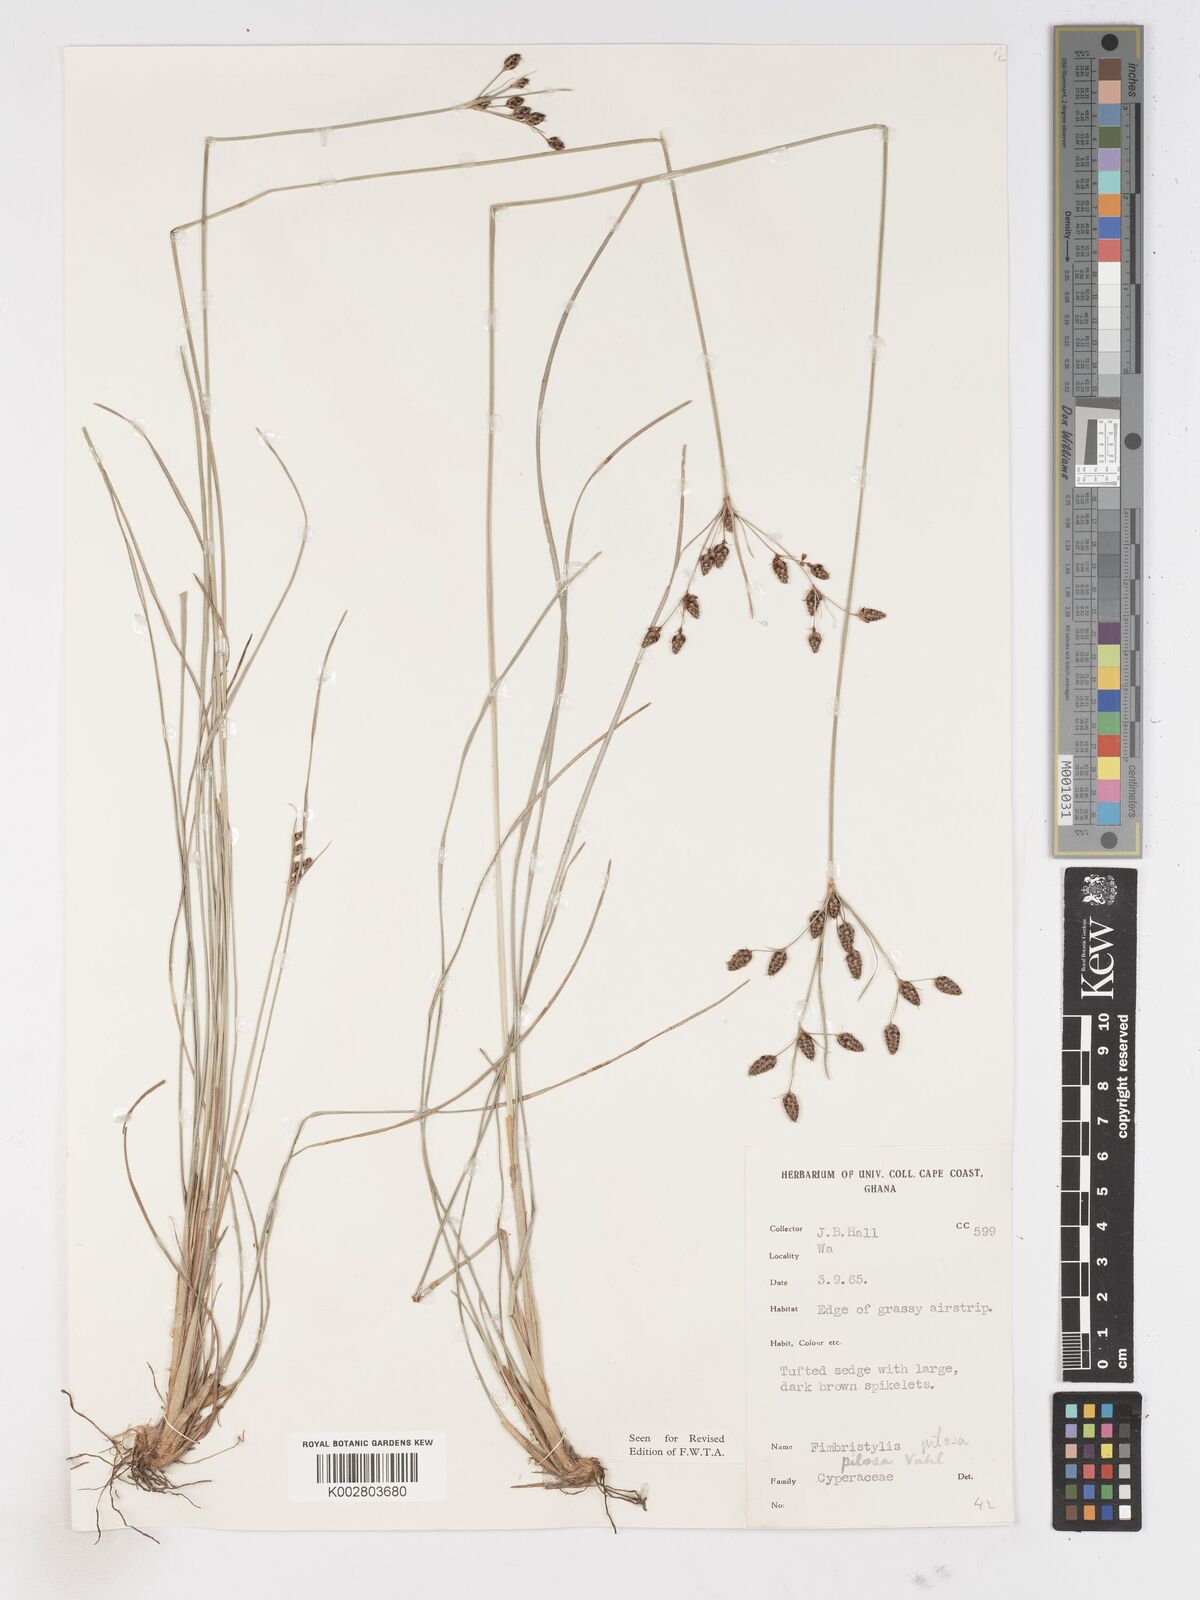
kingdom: Plantae
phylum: Tracheophyta
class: Liliopsida
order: Poales
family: Cyperaceae
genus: Fimbristylis
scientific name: Fimbristylis pilosa
